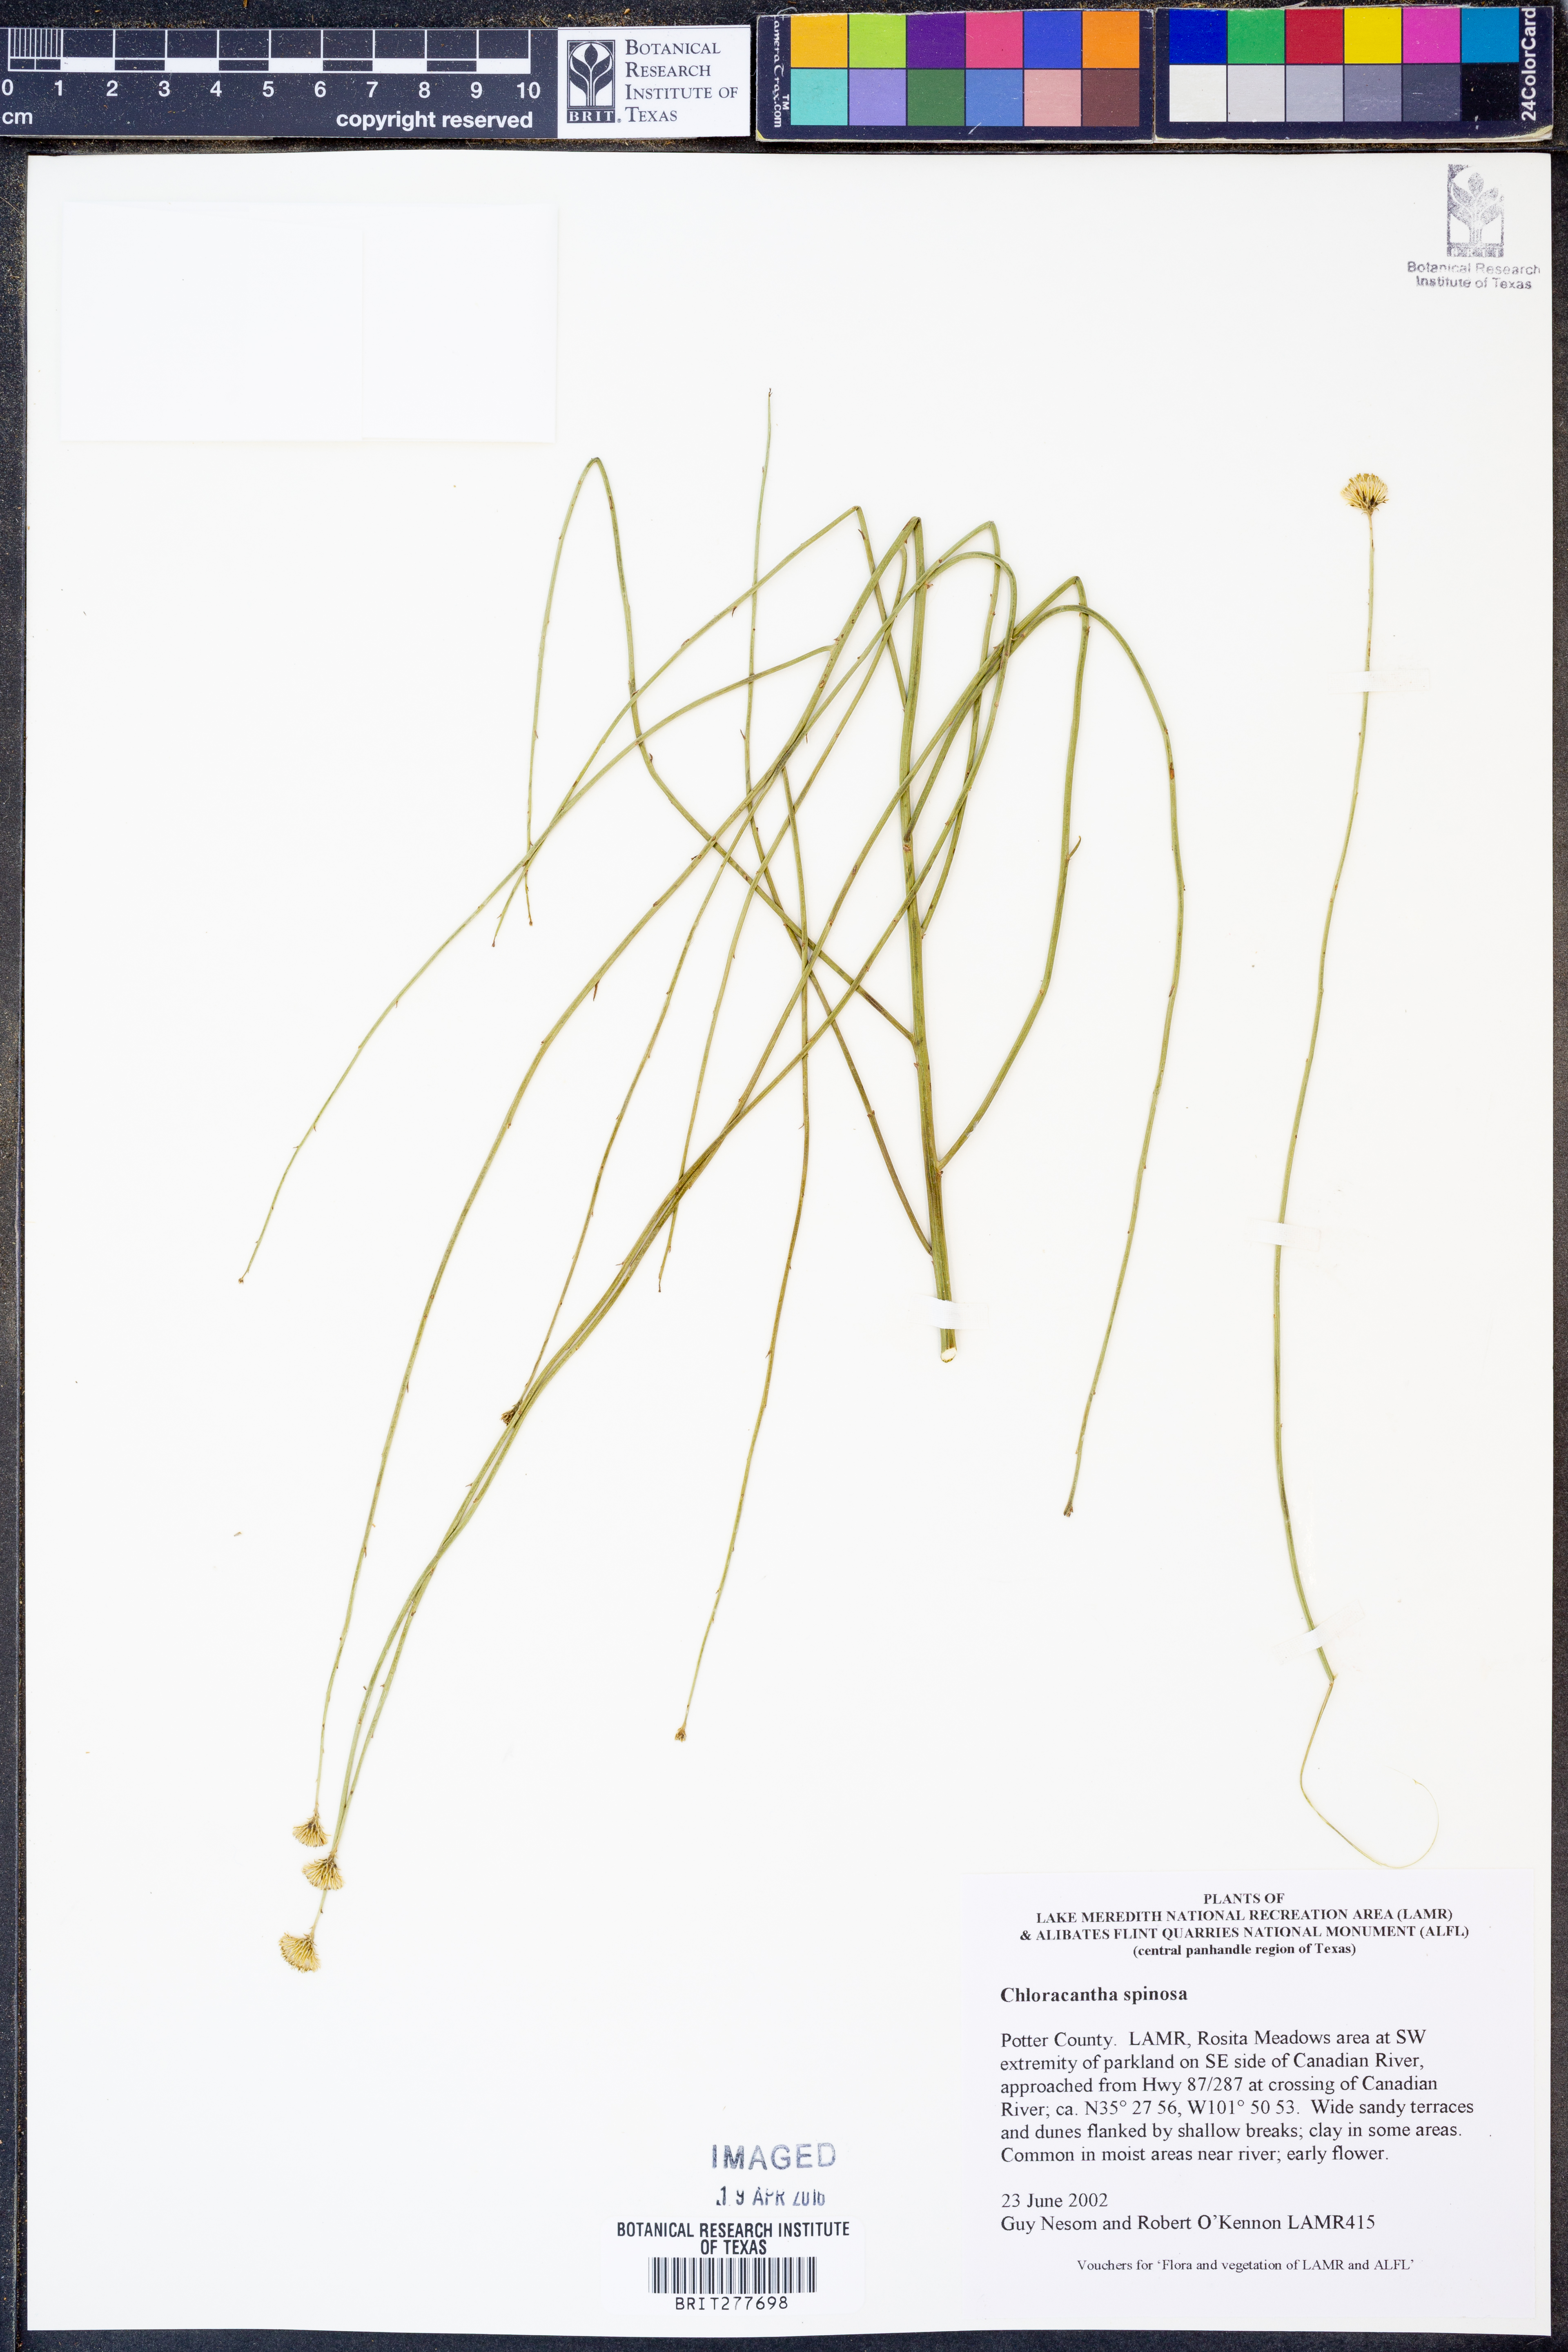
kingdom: Plantae
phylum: Tracheophyta
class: Magnoliopsida
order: Asterales
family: Asteraceae
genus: Chloracantha
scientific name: Chloracantha spinosa
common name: Mexican devilweed
